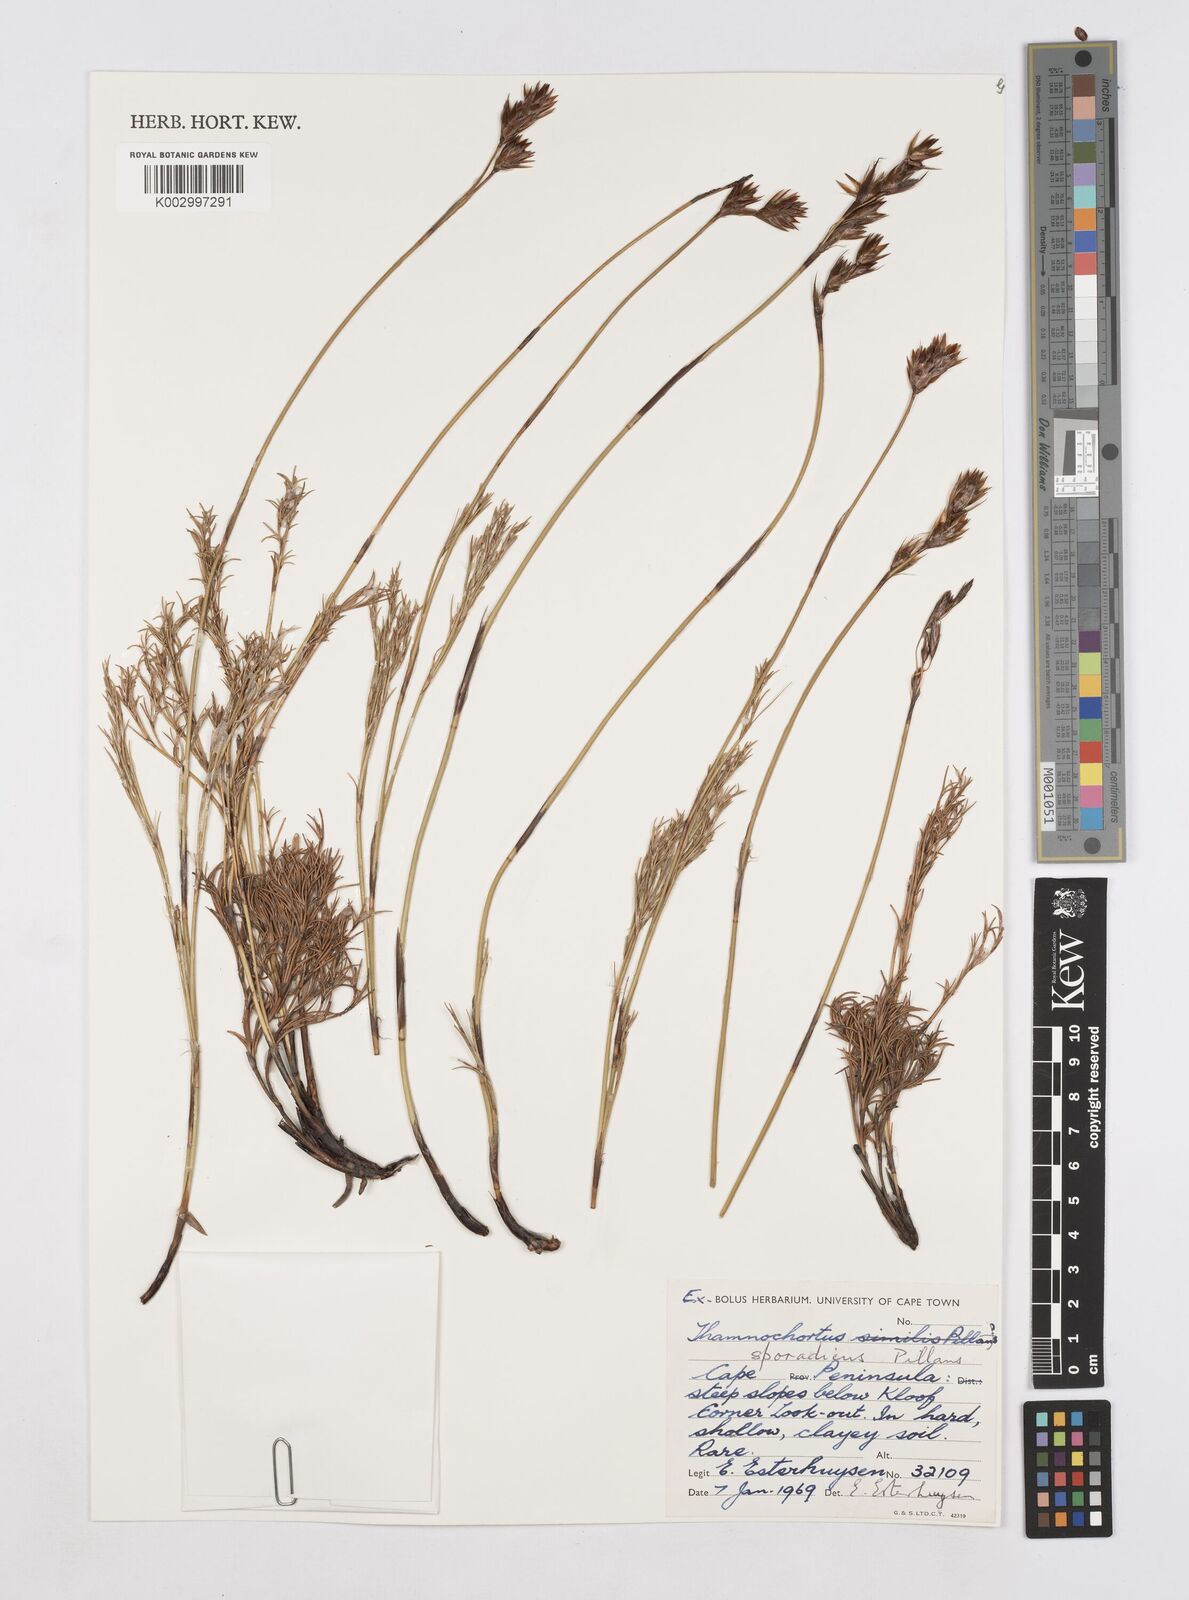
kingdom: Plantae
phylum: Tracheophyta
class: Liliopsida
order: Poales
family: Restionaceae
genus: Thamnochortus
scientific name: Thamnochortus sporadicus
